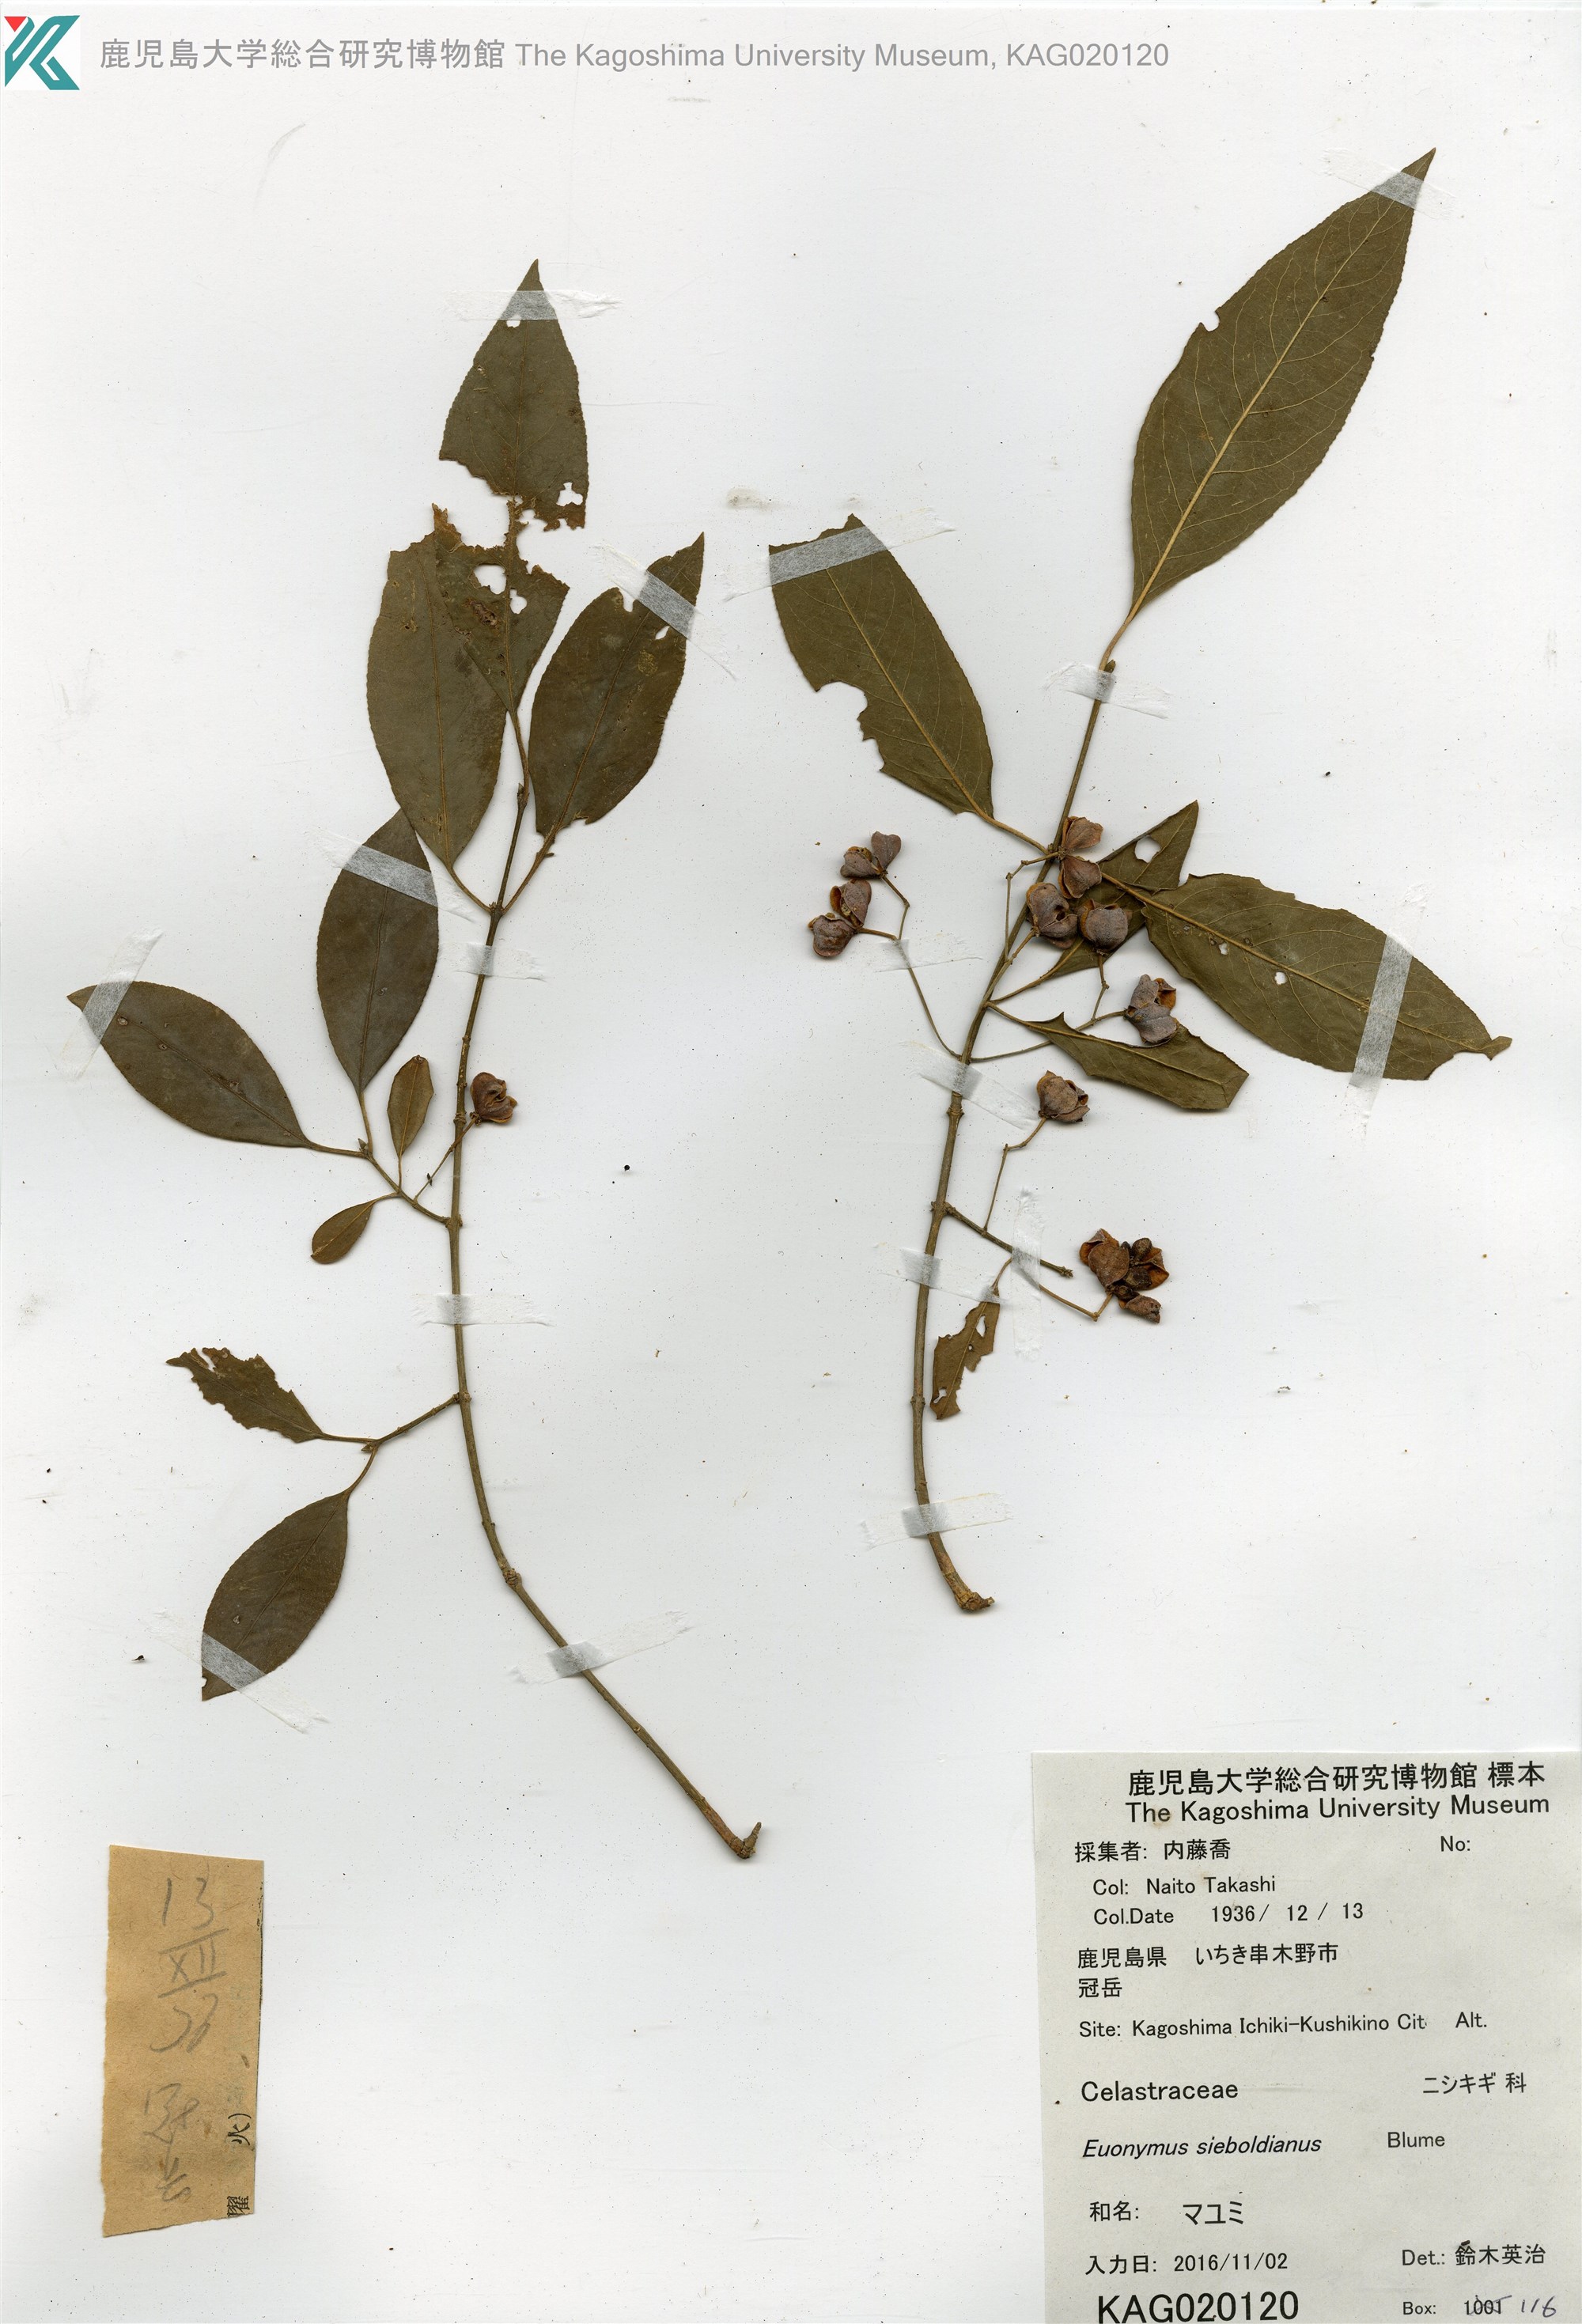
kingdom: Plantae
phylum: Tracheophyta
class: Magnoliopsida
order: Celastrales
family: Celastraceae
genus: Euonymus
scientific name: Euonymus hamiltonianus
